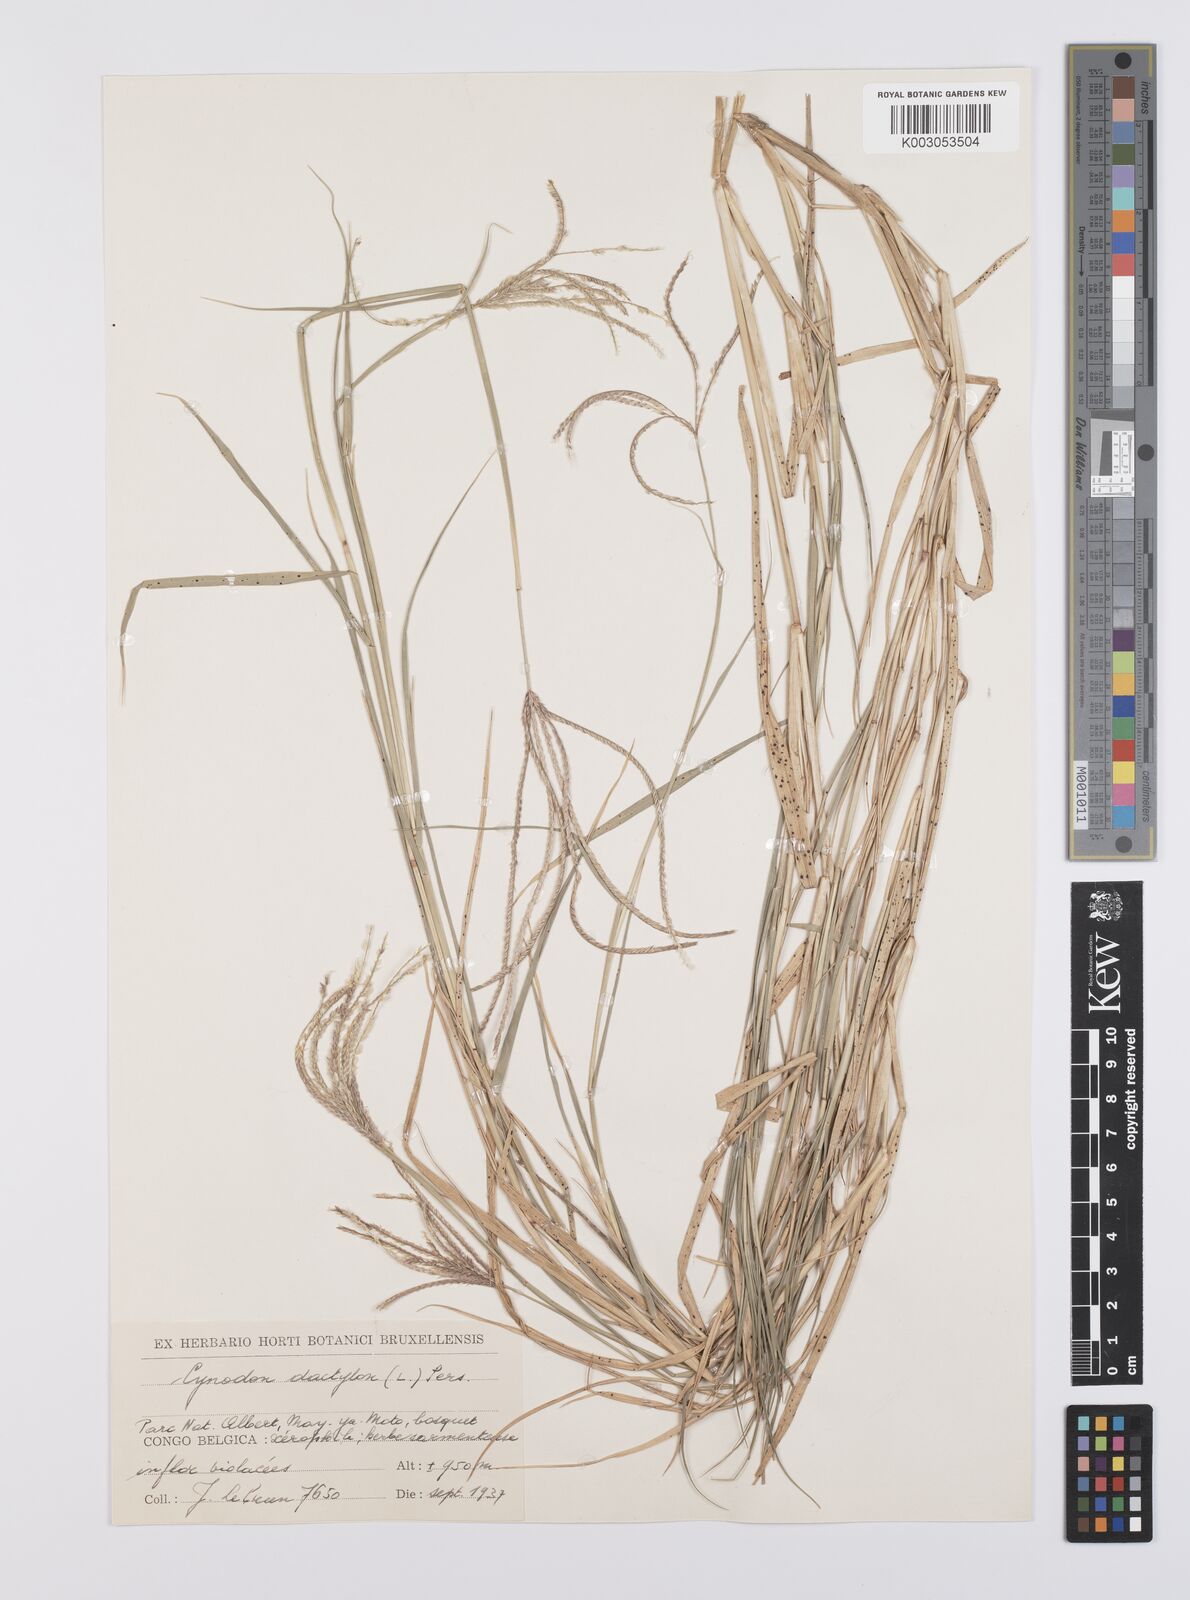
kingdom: Plantae
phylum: Tracheophyta
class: Liliopsida
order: Poales
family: Poaceae
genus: Cynodon
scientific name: Cynodon nlemfuensis
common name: African bermudagrass
